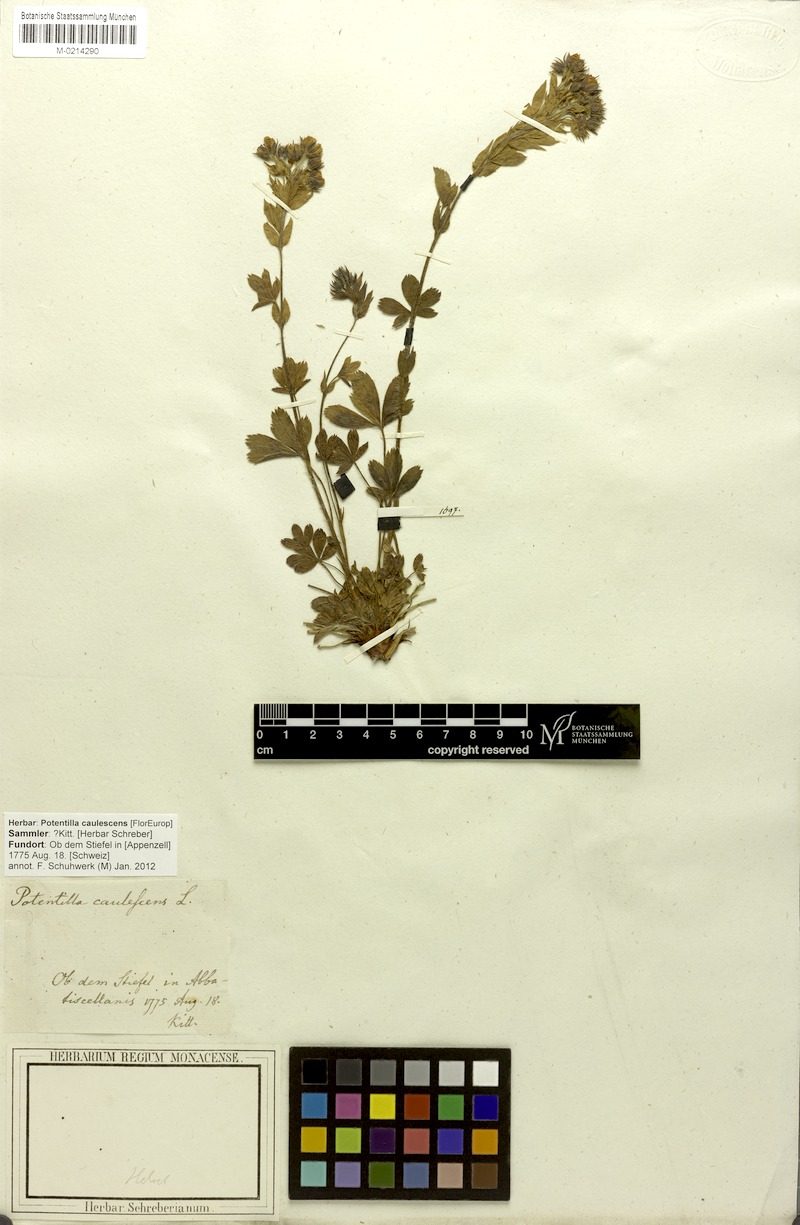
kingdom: Plantae
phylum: Tracheophyta
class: Magnoliopsida
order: Rosales
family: Rosaceae
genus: Potentilla
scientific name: Potentilla caulescens
